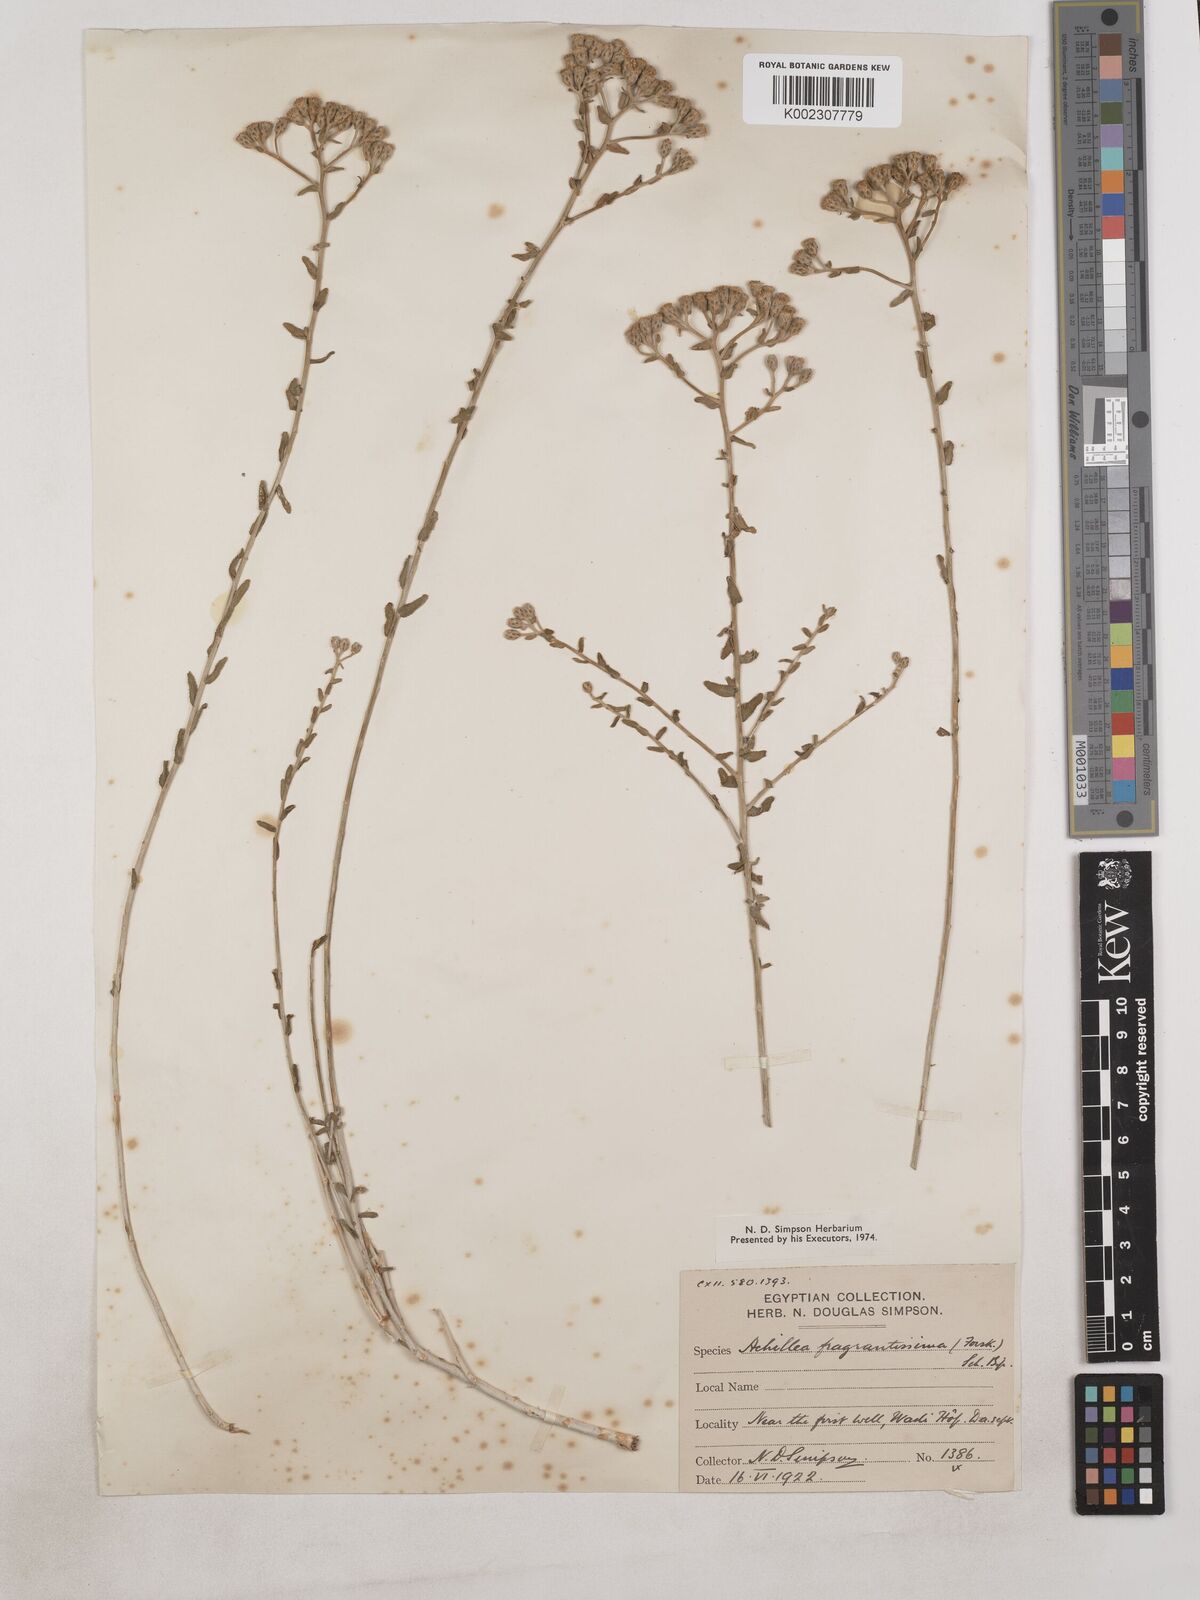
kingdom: Plantae
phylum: Tracheophyta
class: Magnoliopsida
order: Asterales
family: Asteraceae
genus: Achillea
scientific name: Achillea fragrantissima
